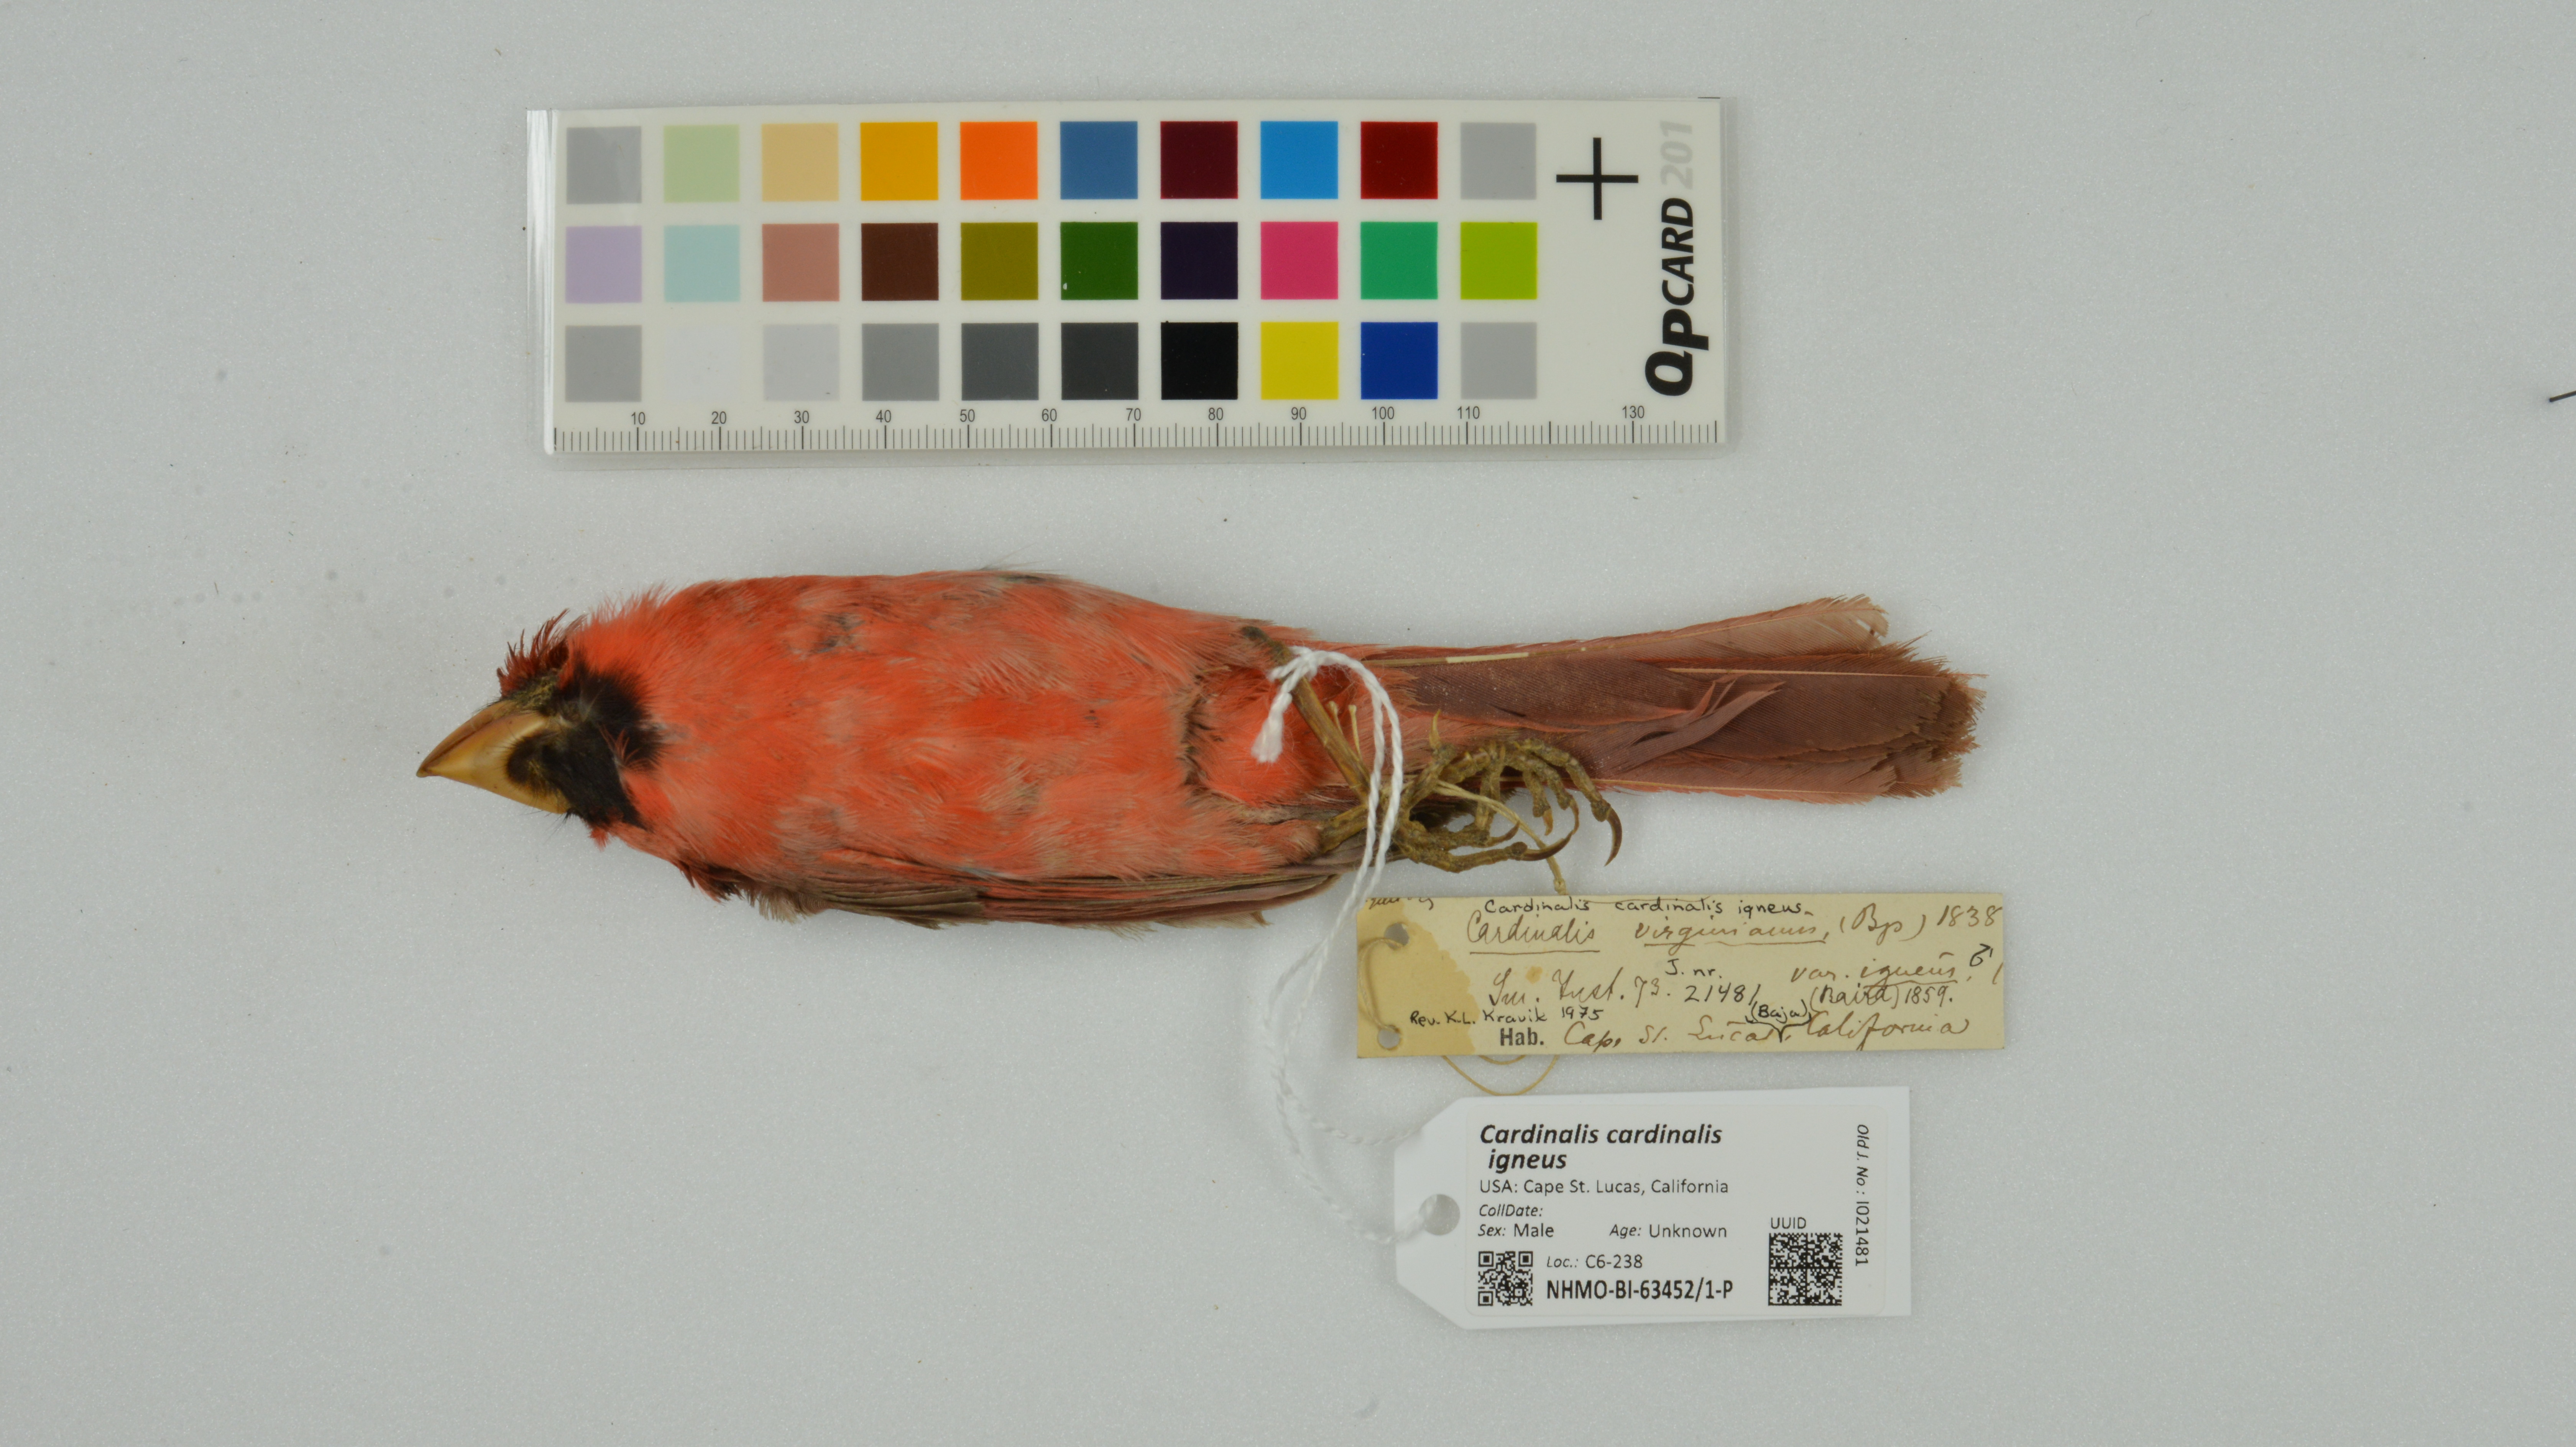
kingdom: Animalia
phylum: Chordata
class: Aves
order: Passeriformes
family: Cardinalidae
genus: Cardinalis
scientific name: Cardinalis cardinalis
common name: Northern cardinal
